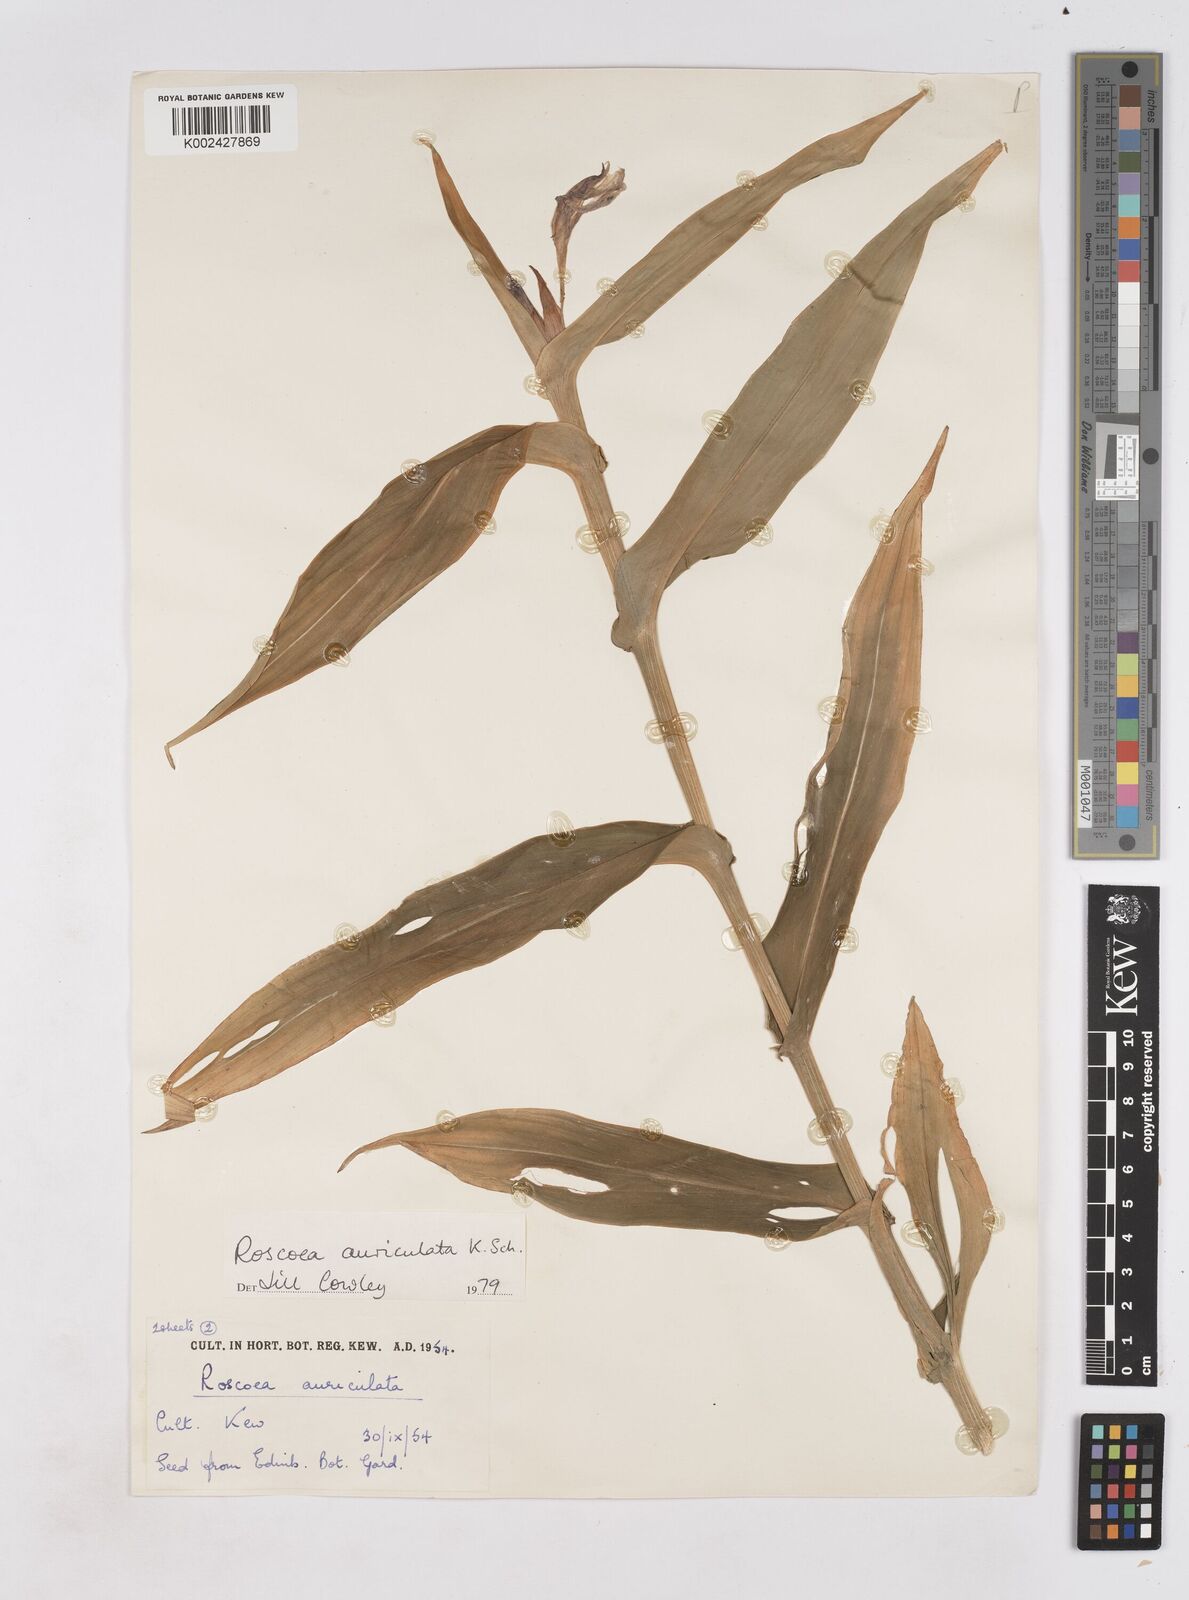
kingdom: Plantae
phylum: Tracheophyta
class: Liliopsida
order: Zingiberales
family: Zingiberaceae
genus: Roscoea
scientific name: Roscoea auriculata
